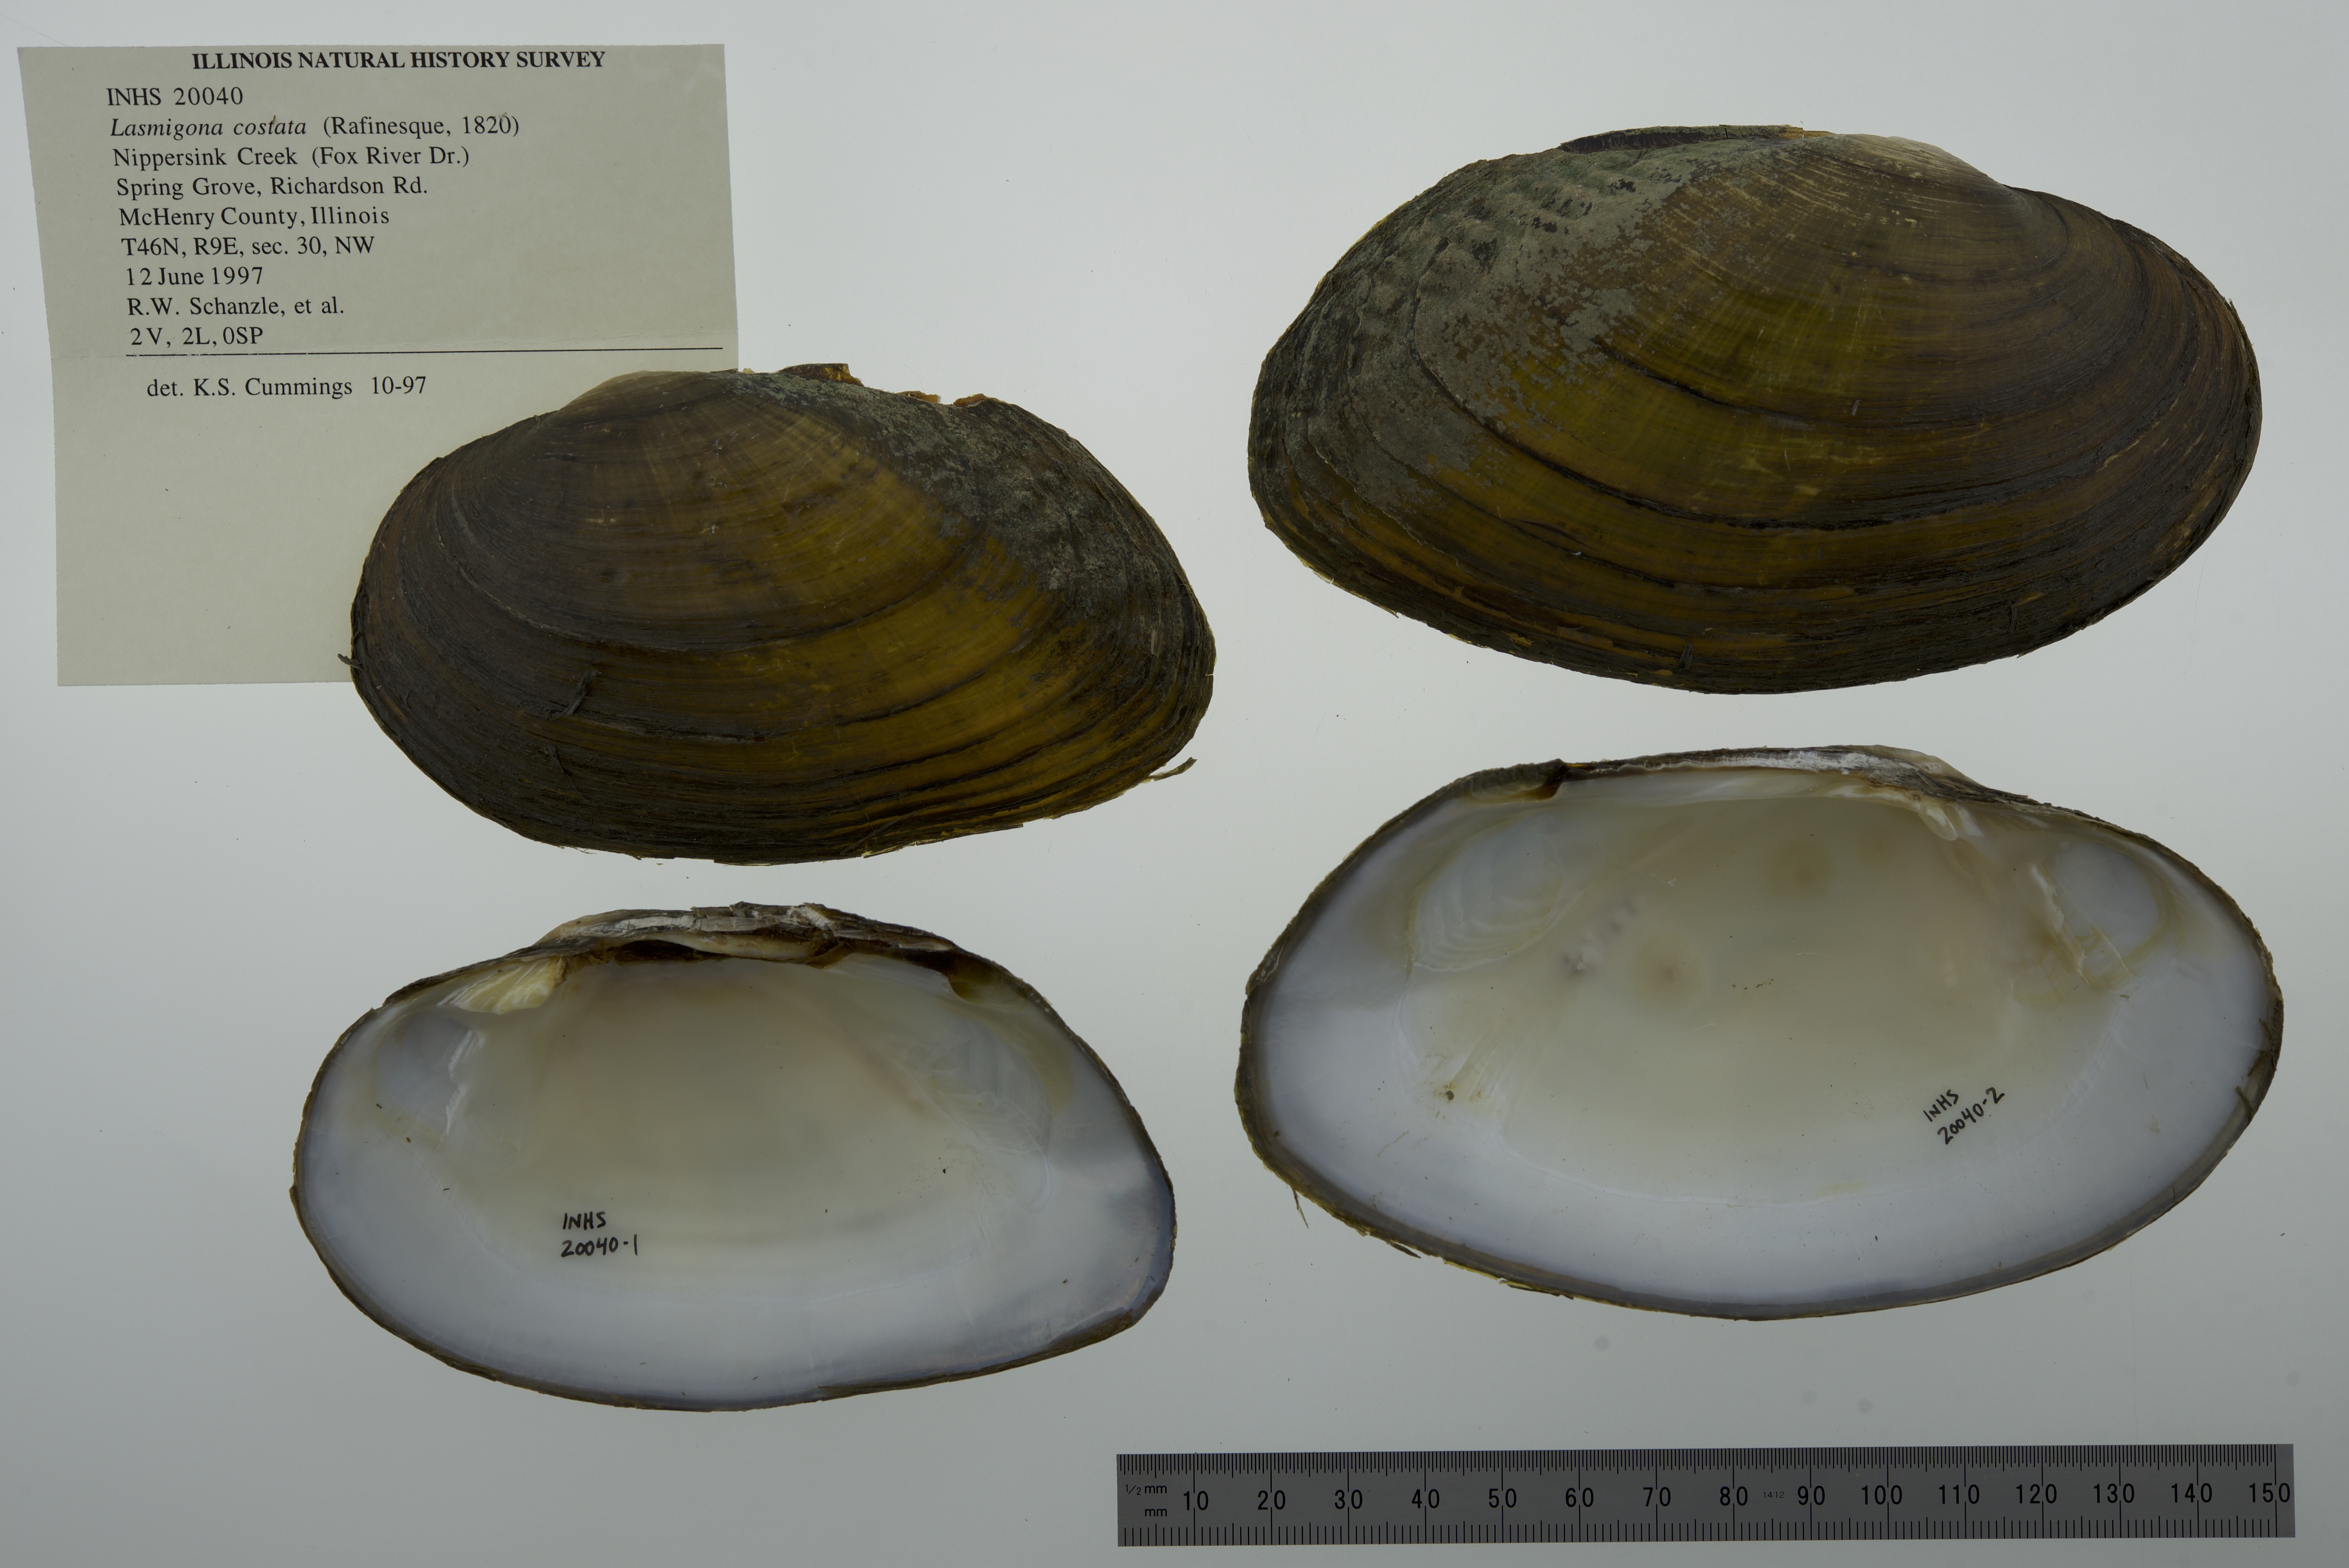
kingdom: Animalia
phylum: Mollusca
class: Bivalvia
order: Unionida
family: Unionidae
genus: Lasmigona
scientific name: Lasmigona costata
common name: Flutedshell
